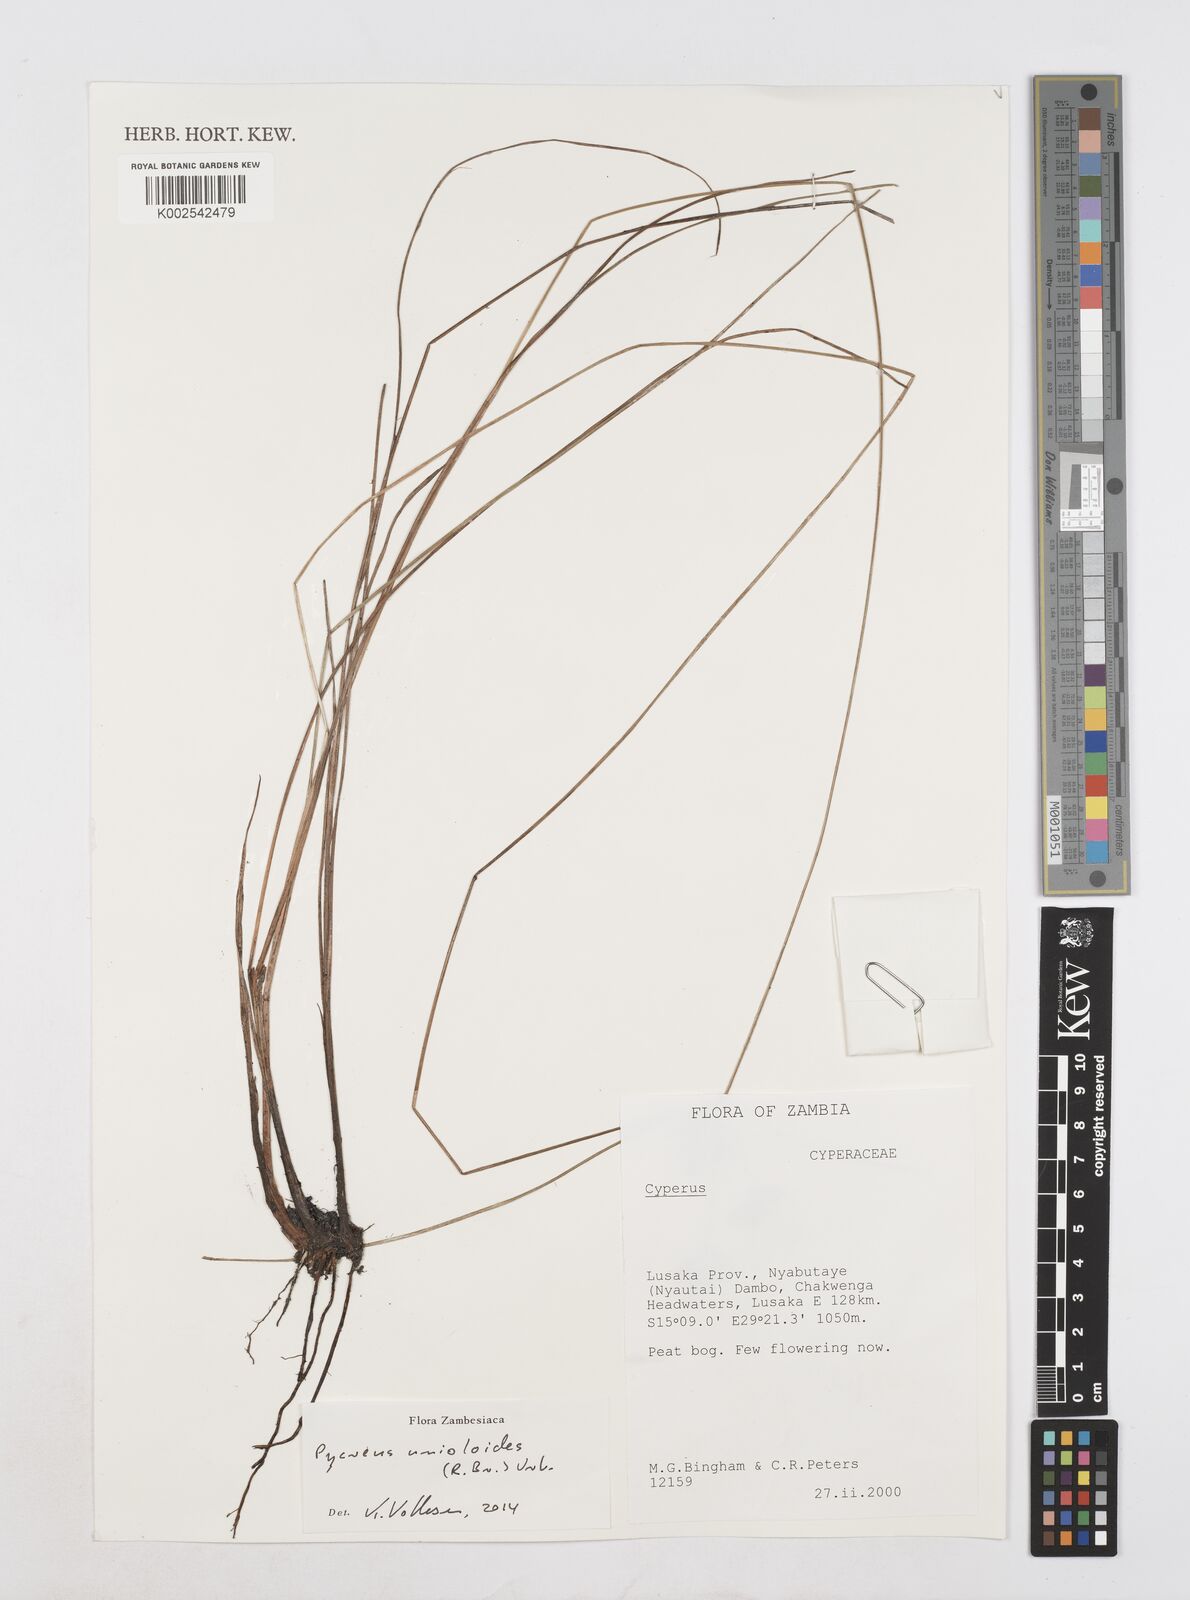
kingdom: Plantae
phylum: Tracheophyta
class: Liliopsida
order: Poales
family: Cyperaceae
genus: Cyperus
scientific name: Cyperus unioloides
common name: Uniola flatsedge
